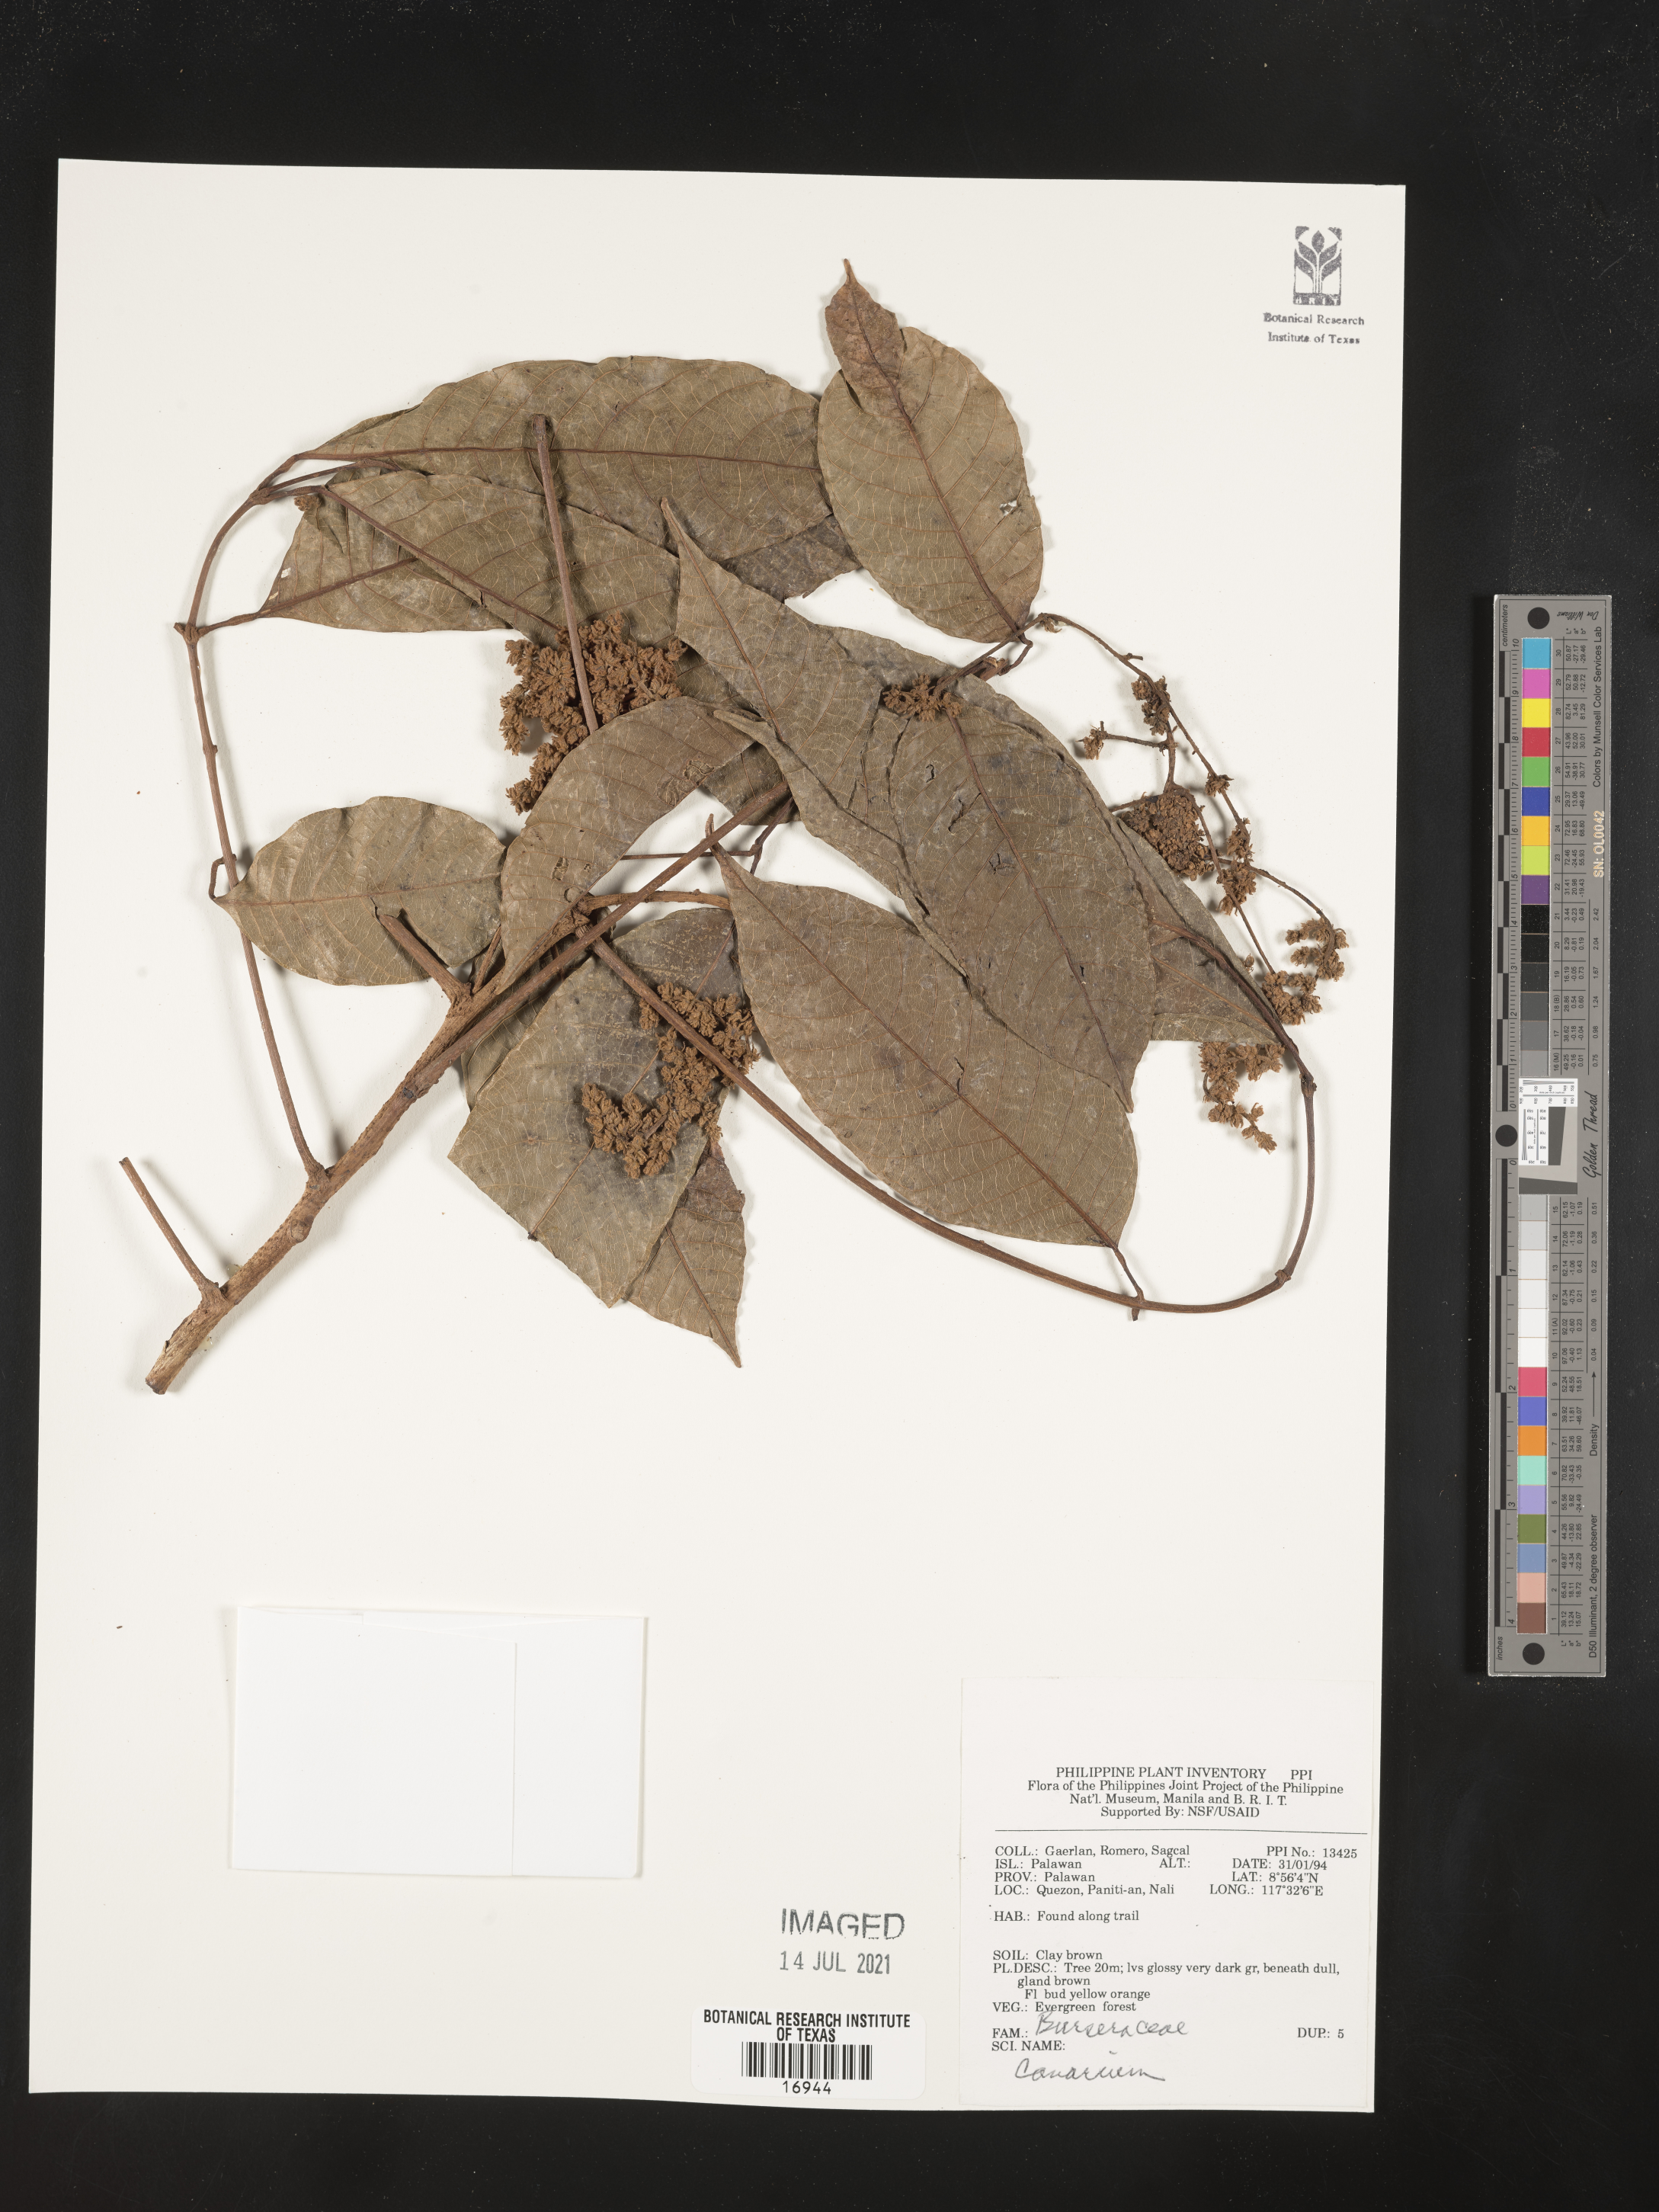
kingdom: Plantae
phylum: Tracheophyta
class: Magnoliopsida
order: Sapindales
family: Burseraceae
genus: Canarium
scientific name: Canarium
